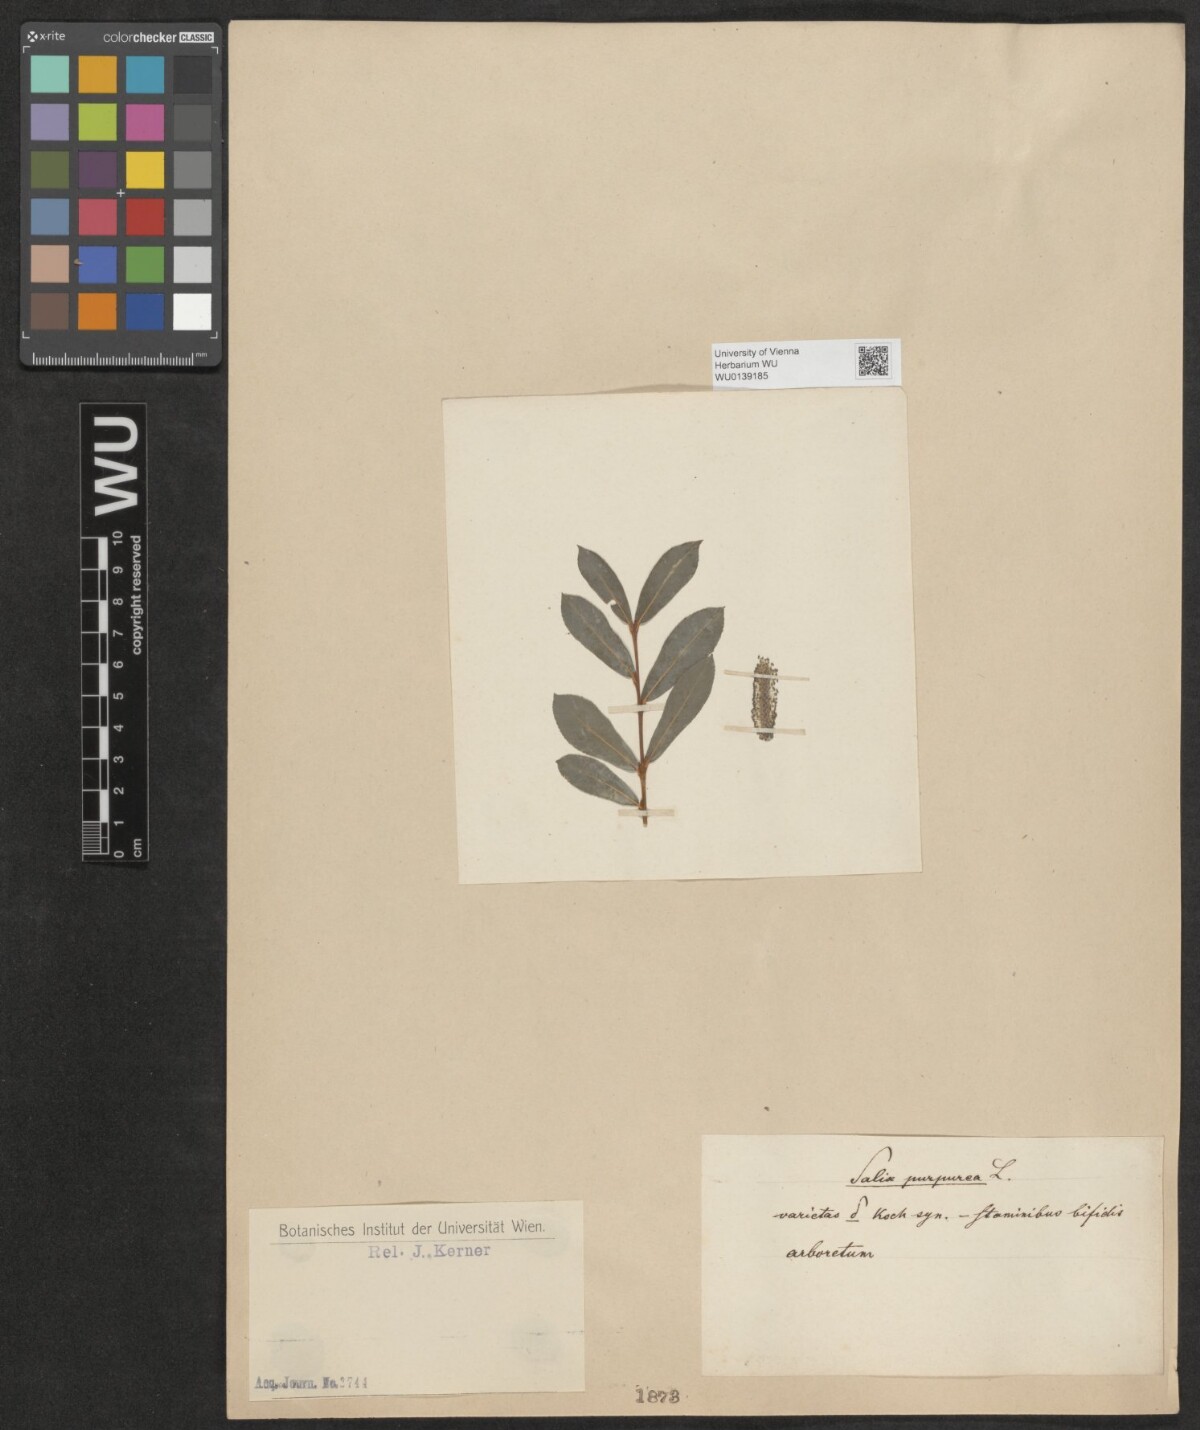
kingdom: Plantae
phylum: Tracheophyta
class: Magnoliopsida
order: Malpighiales
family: Salicaceae
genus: Salix
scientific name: Salix purpurea
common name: Purple willow
